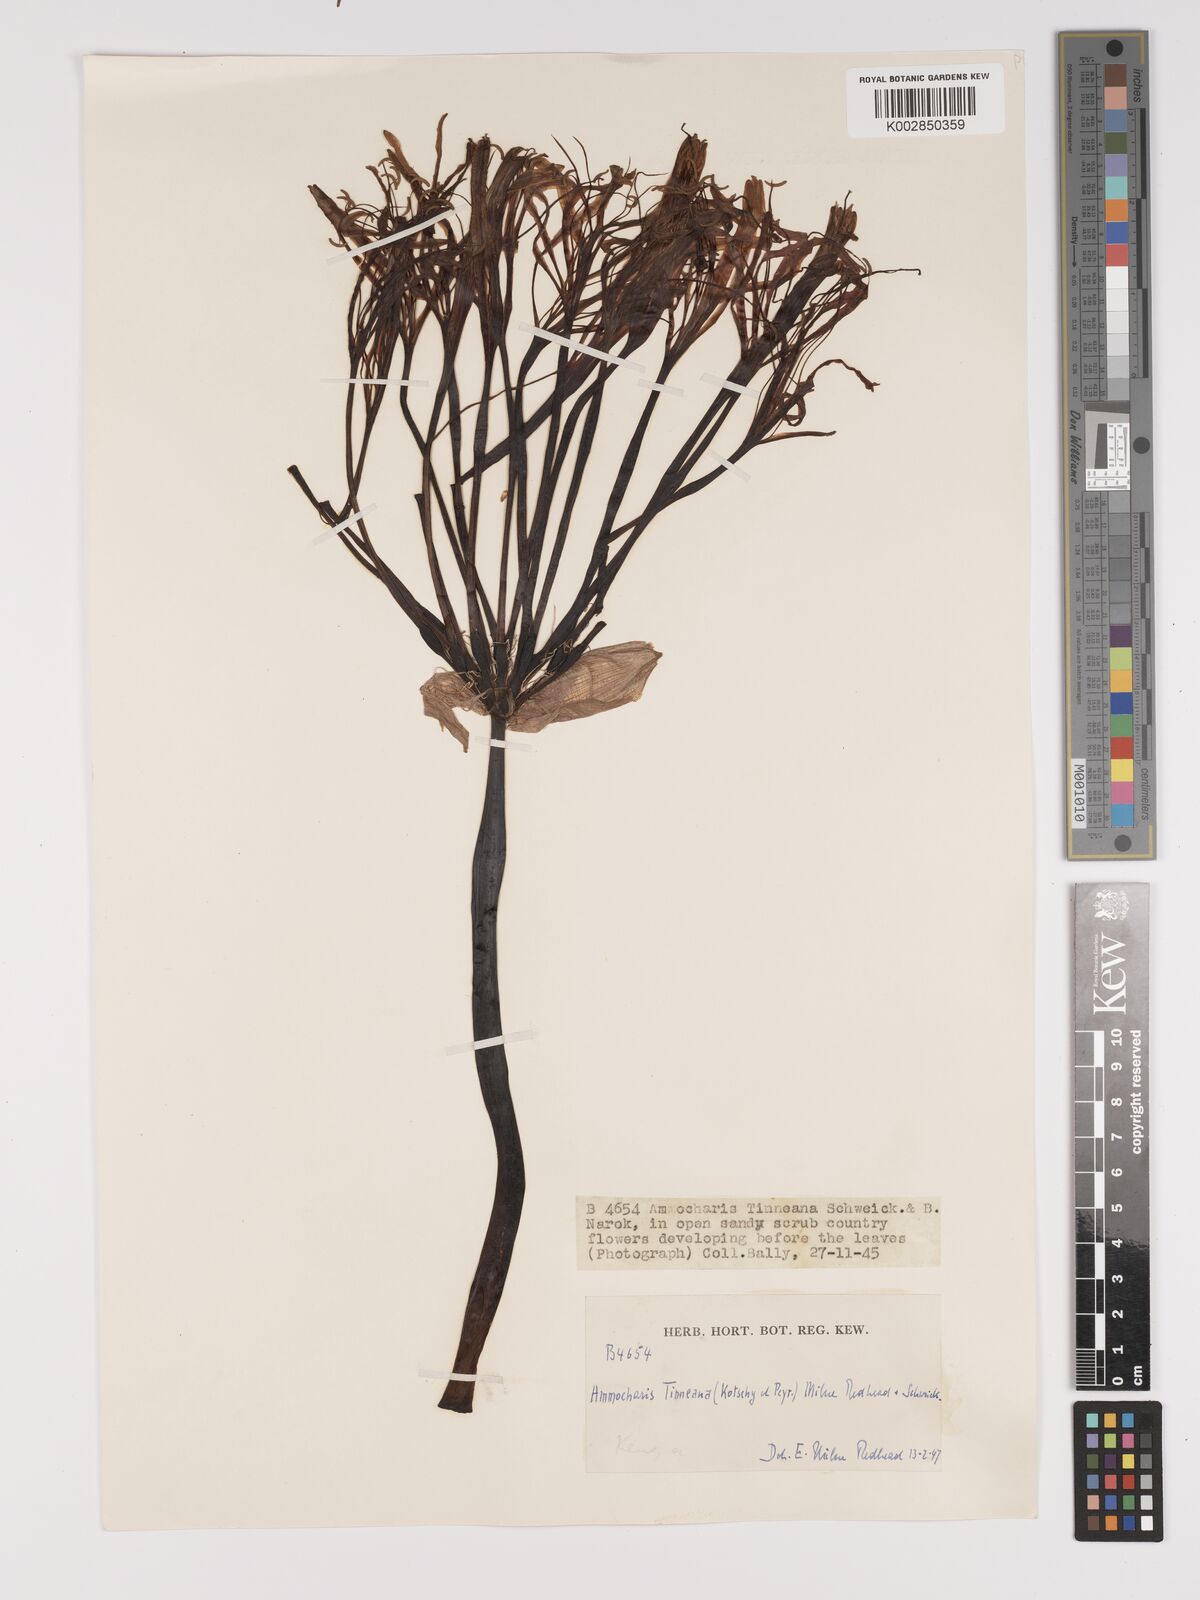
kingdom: Plantae
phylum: Tracheophyta
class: Liliopsida
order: Asparagales
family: Amaryllidaceae
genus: Ammocharis
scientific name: Ammocharis tinneana
